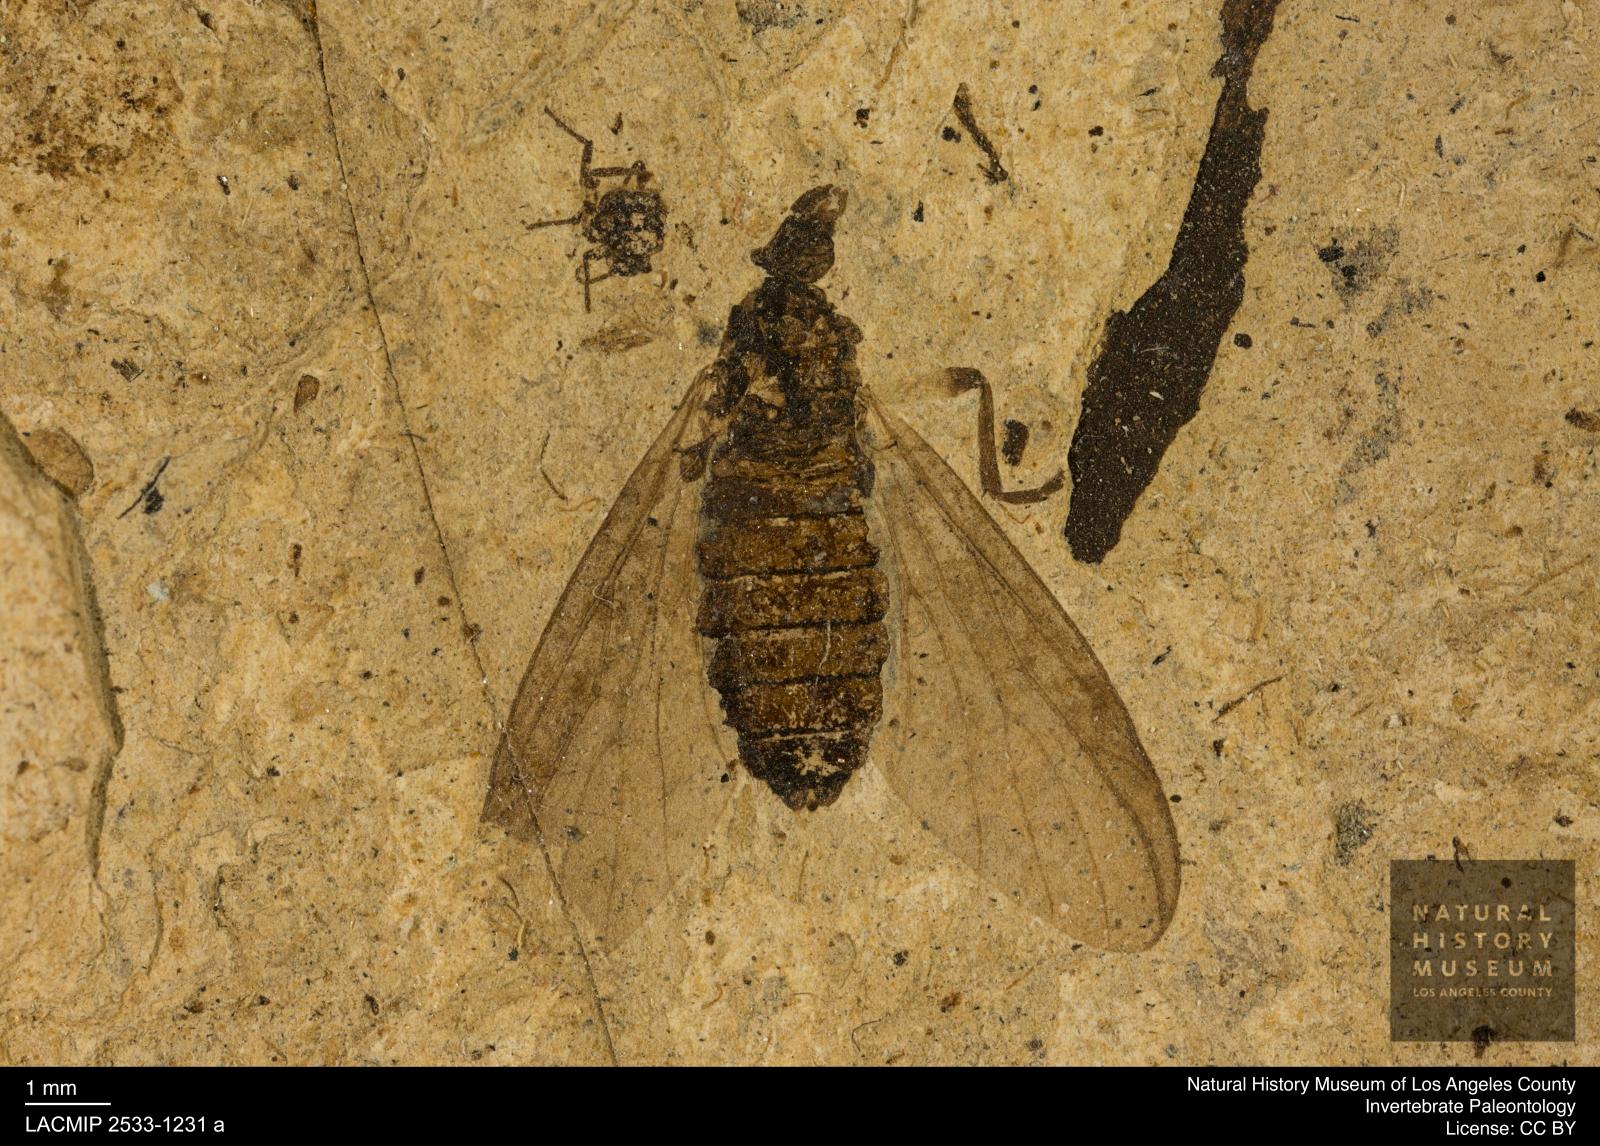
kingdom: Animalia
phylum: Arthropoda
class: Insecta
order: Diptera
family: Bibionidae
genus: Plecia
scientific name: Plecia hypogaea
